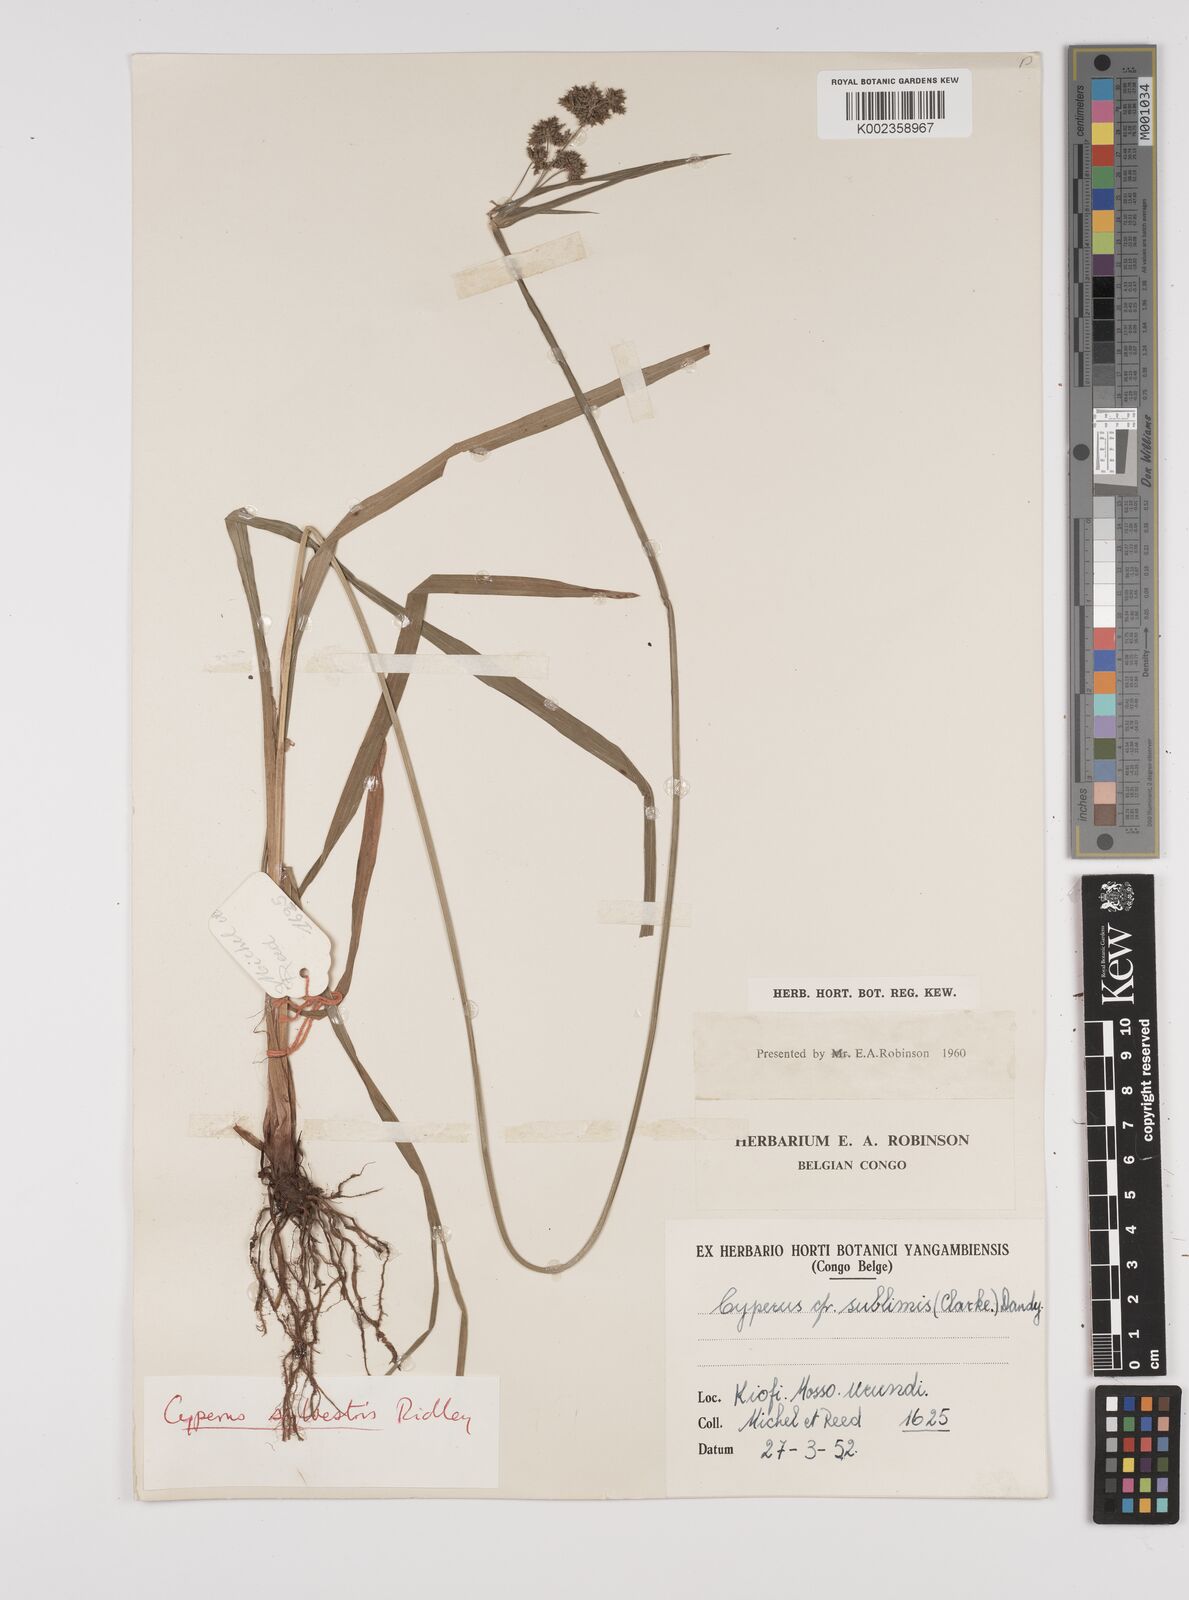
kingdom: Plantae
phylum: Tracheophyta
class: Liliopsida
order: Poales
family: Cyperaceae
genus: Cyperus
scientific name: Cyperus diffusus
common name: Dwarf umbrella grass
